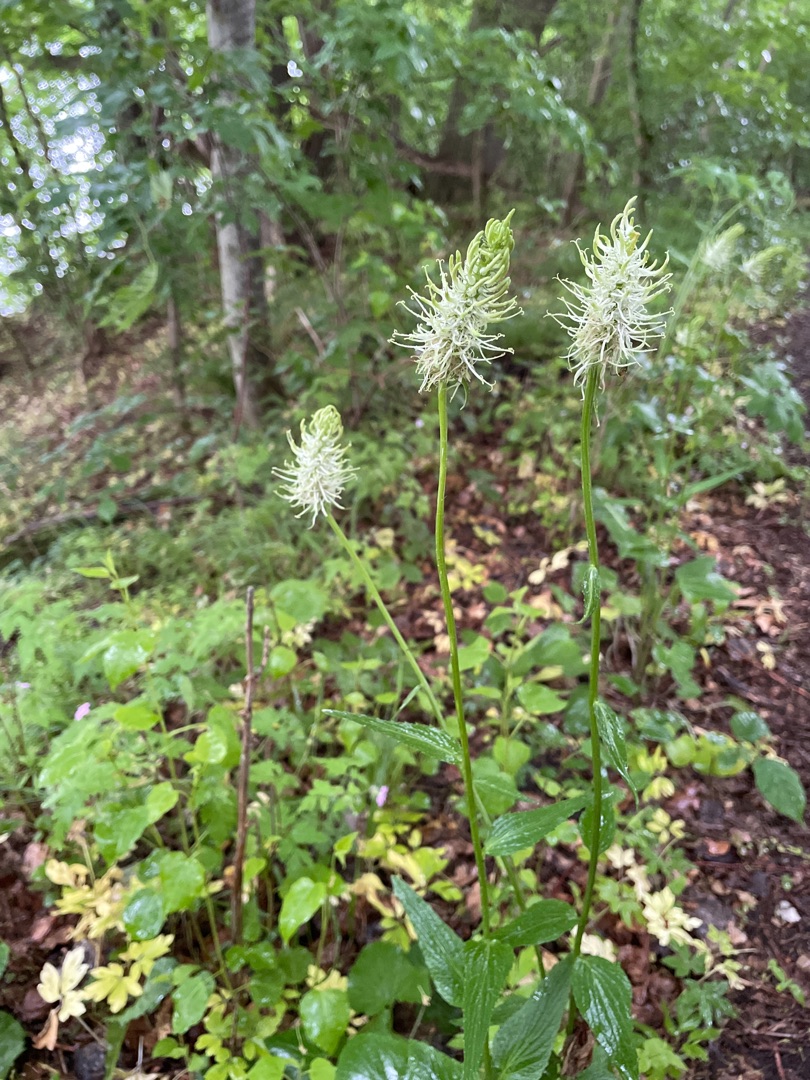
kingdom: Plantae
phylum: Tracheophyta
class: Magnoliopsida
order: Asterales
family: Campanulaceae
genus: Phyteuma
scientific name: Phyteuma spicatum
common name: Aks-rapunsel
